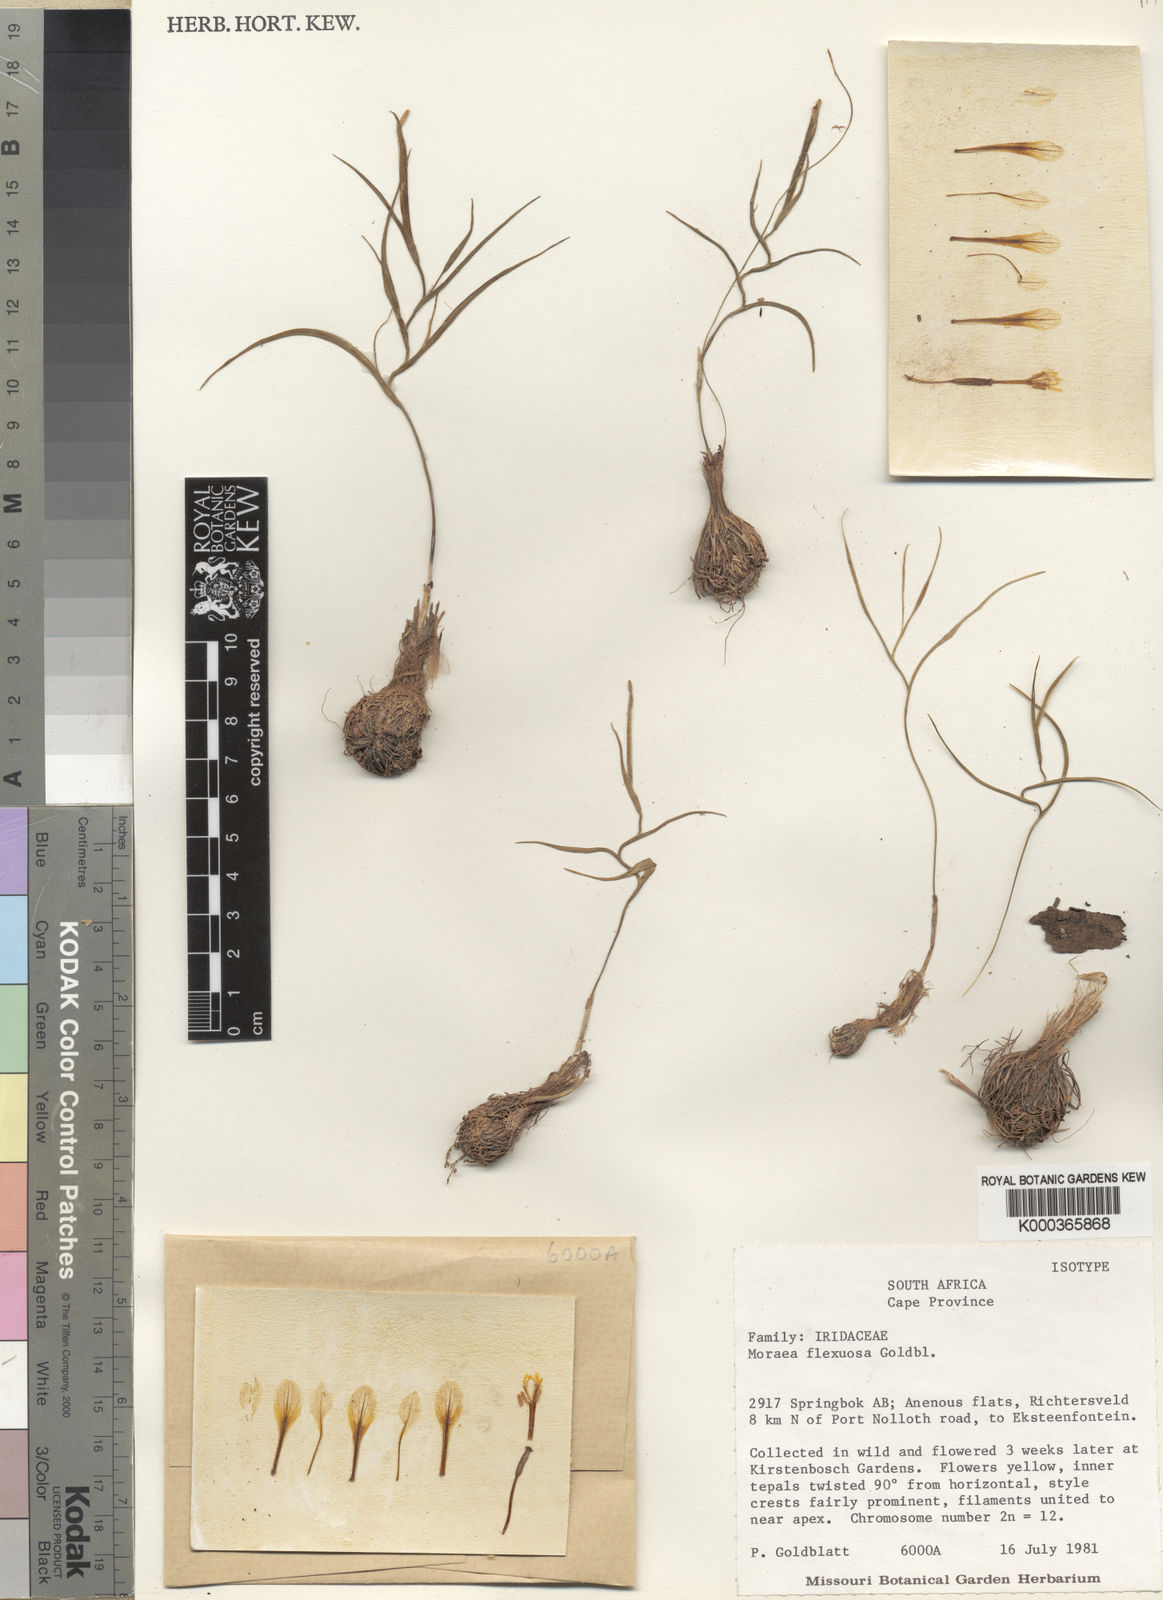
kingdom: Plantae
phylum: Tracheophyta
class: Liliopsida
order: Asparagales
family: Iridaceae
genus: Moraea
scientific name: Moraea
